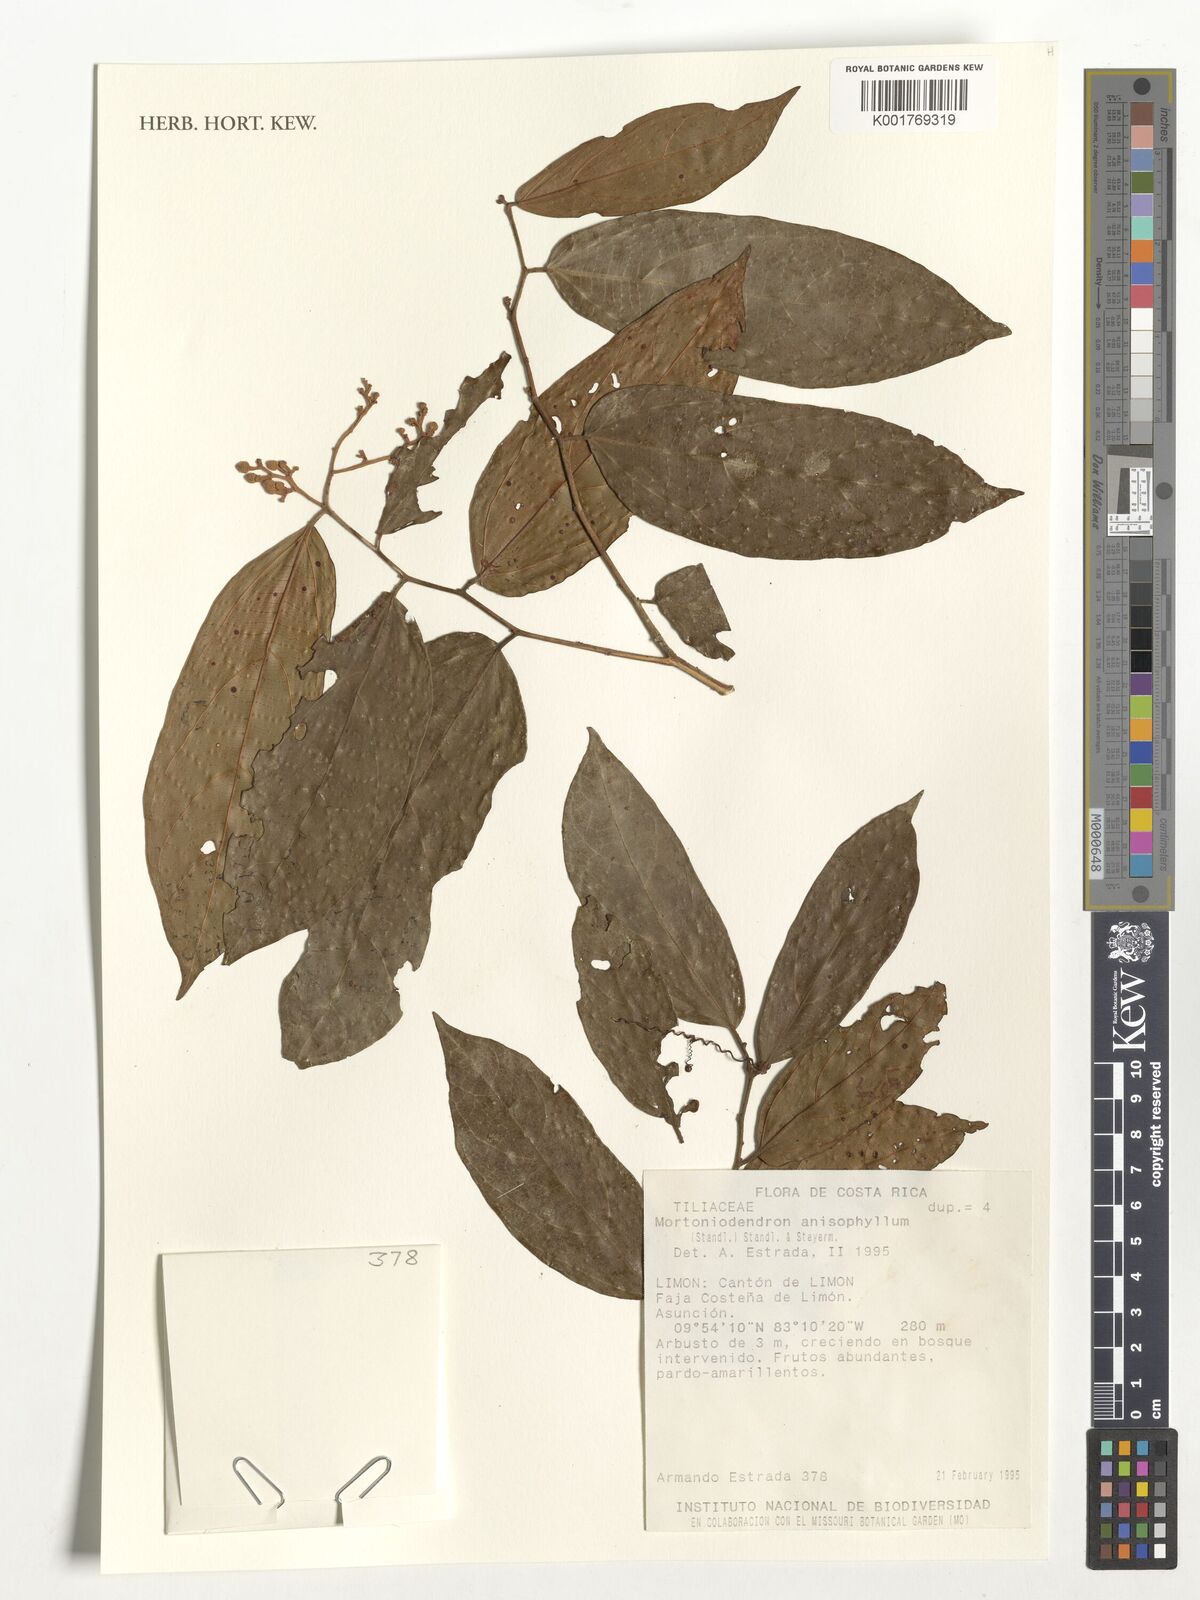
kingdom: Plantae
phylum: Tracheophyta
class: Magnoliopsida
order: Malvales
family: Malvaceae
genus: Mortoniodendron
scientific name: Mortoniodendron anisophyllum
